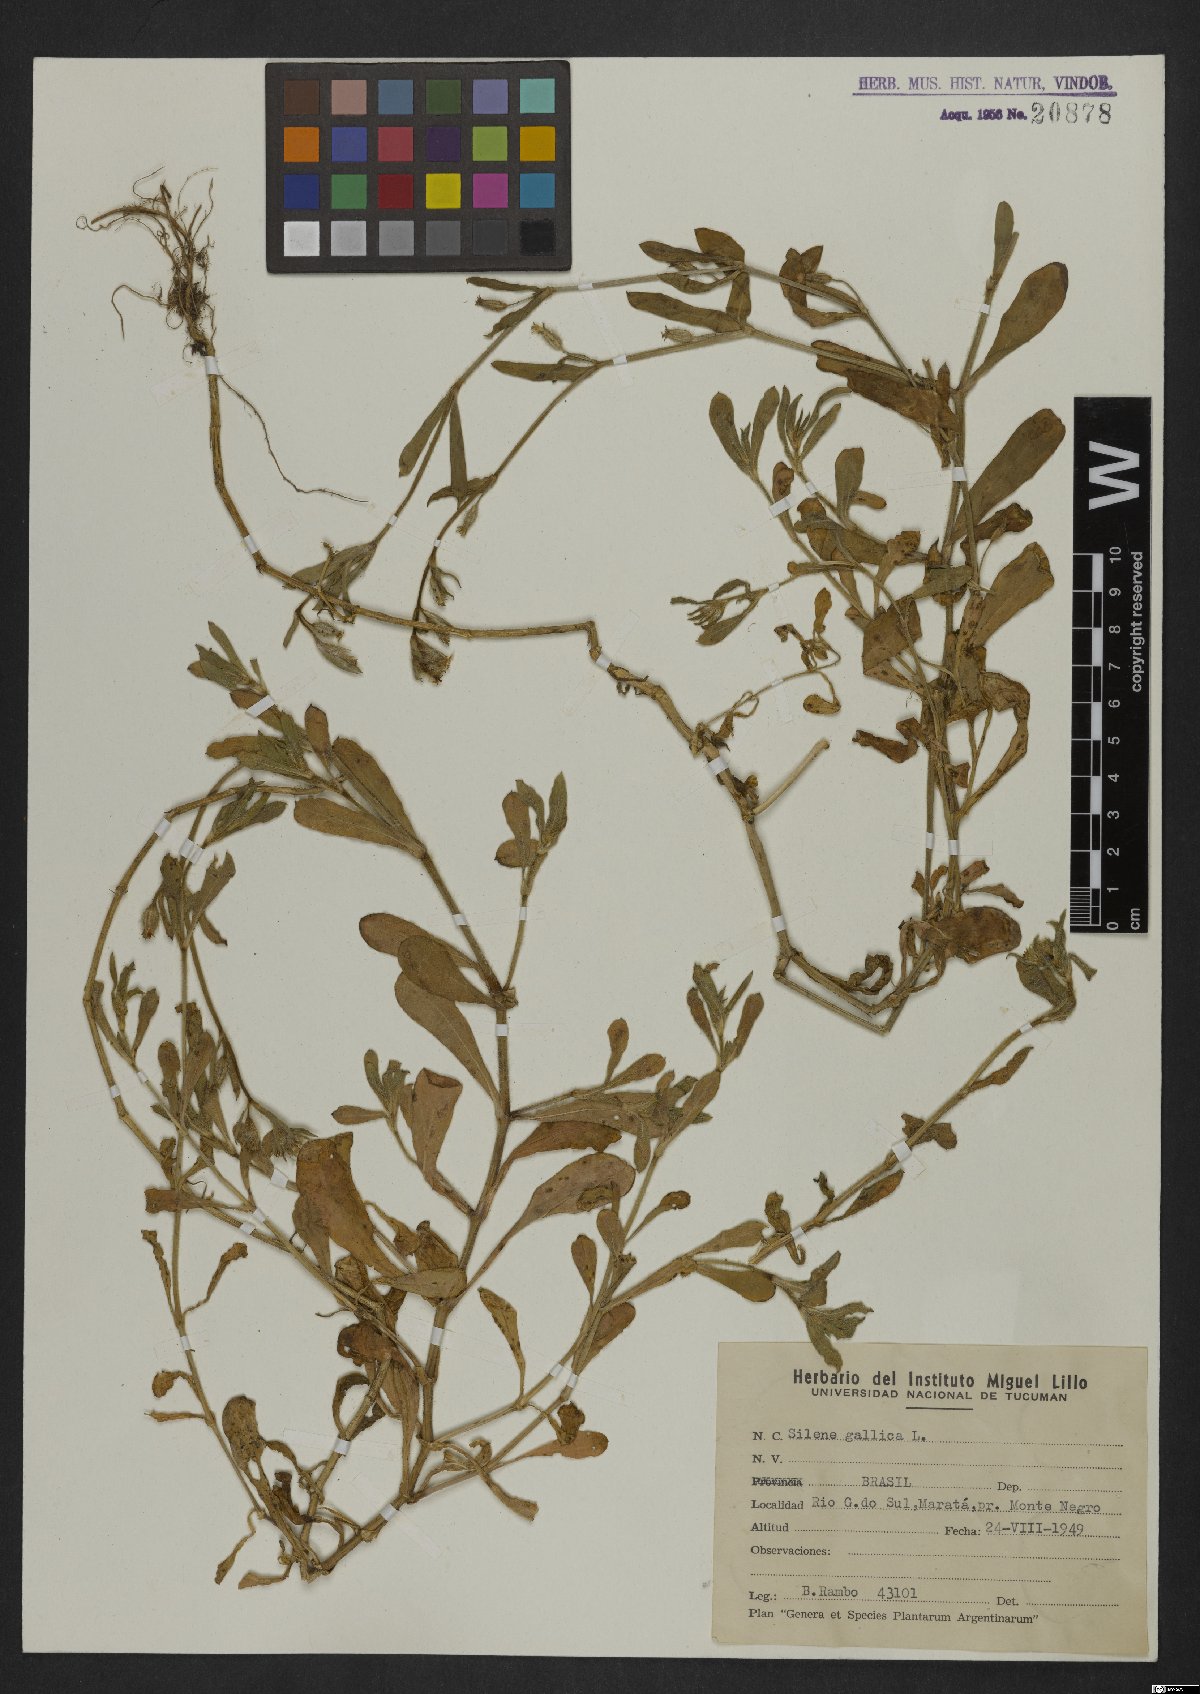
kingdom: Plantae
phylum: Tracheophyta
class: Magnoliopsida
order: Caryophyllales
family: Caryophyllaceae
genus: Silene
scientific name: Silene gallica
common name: Small-flowered catchfly
